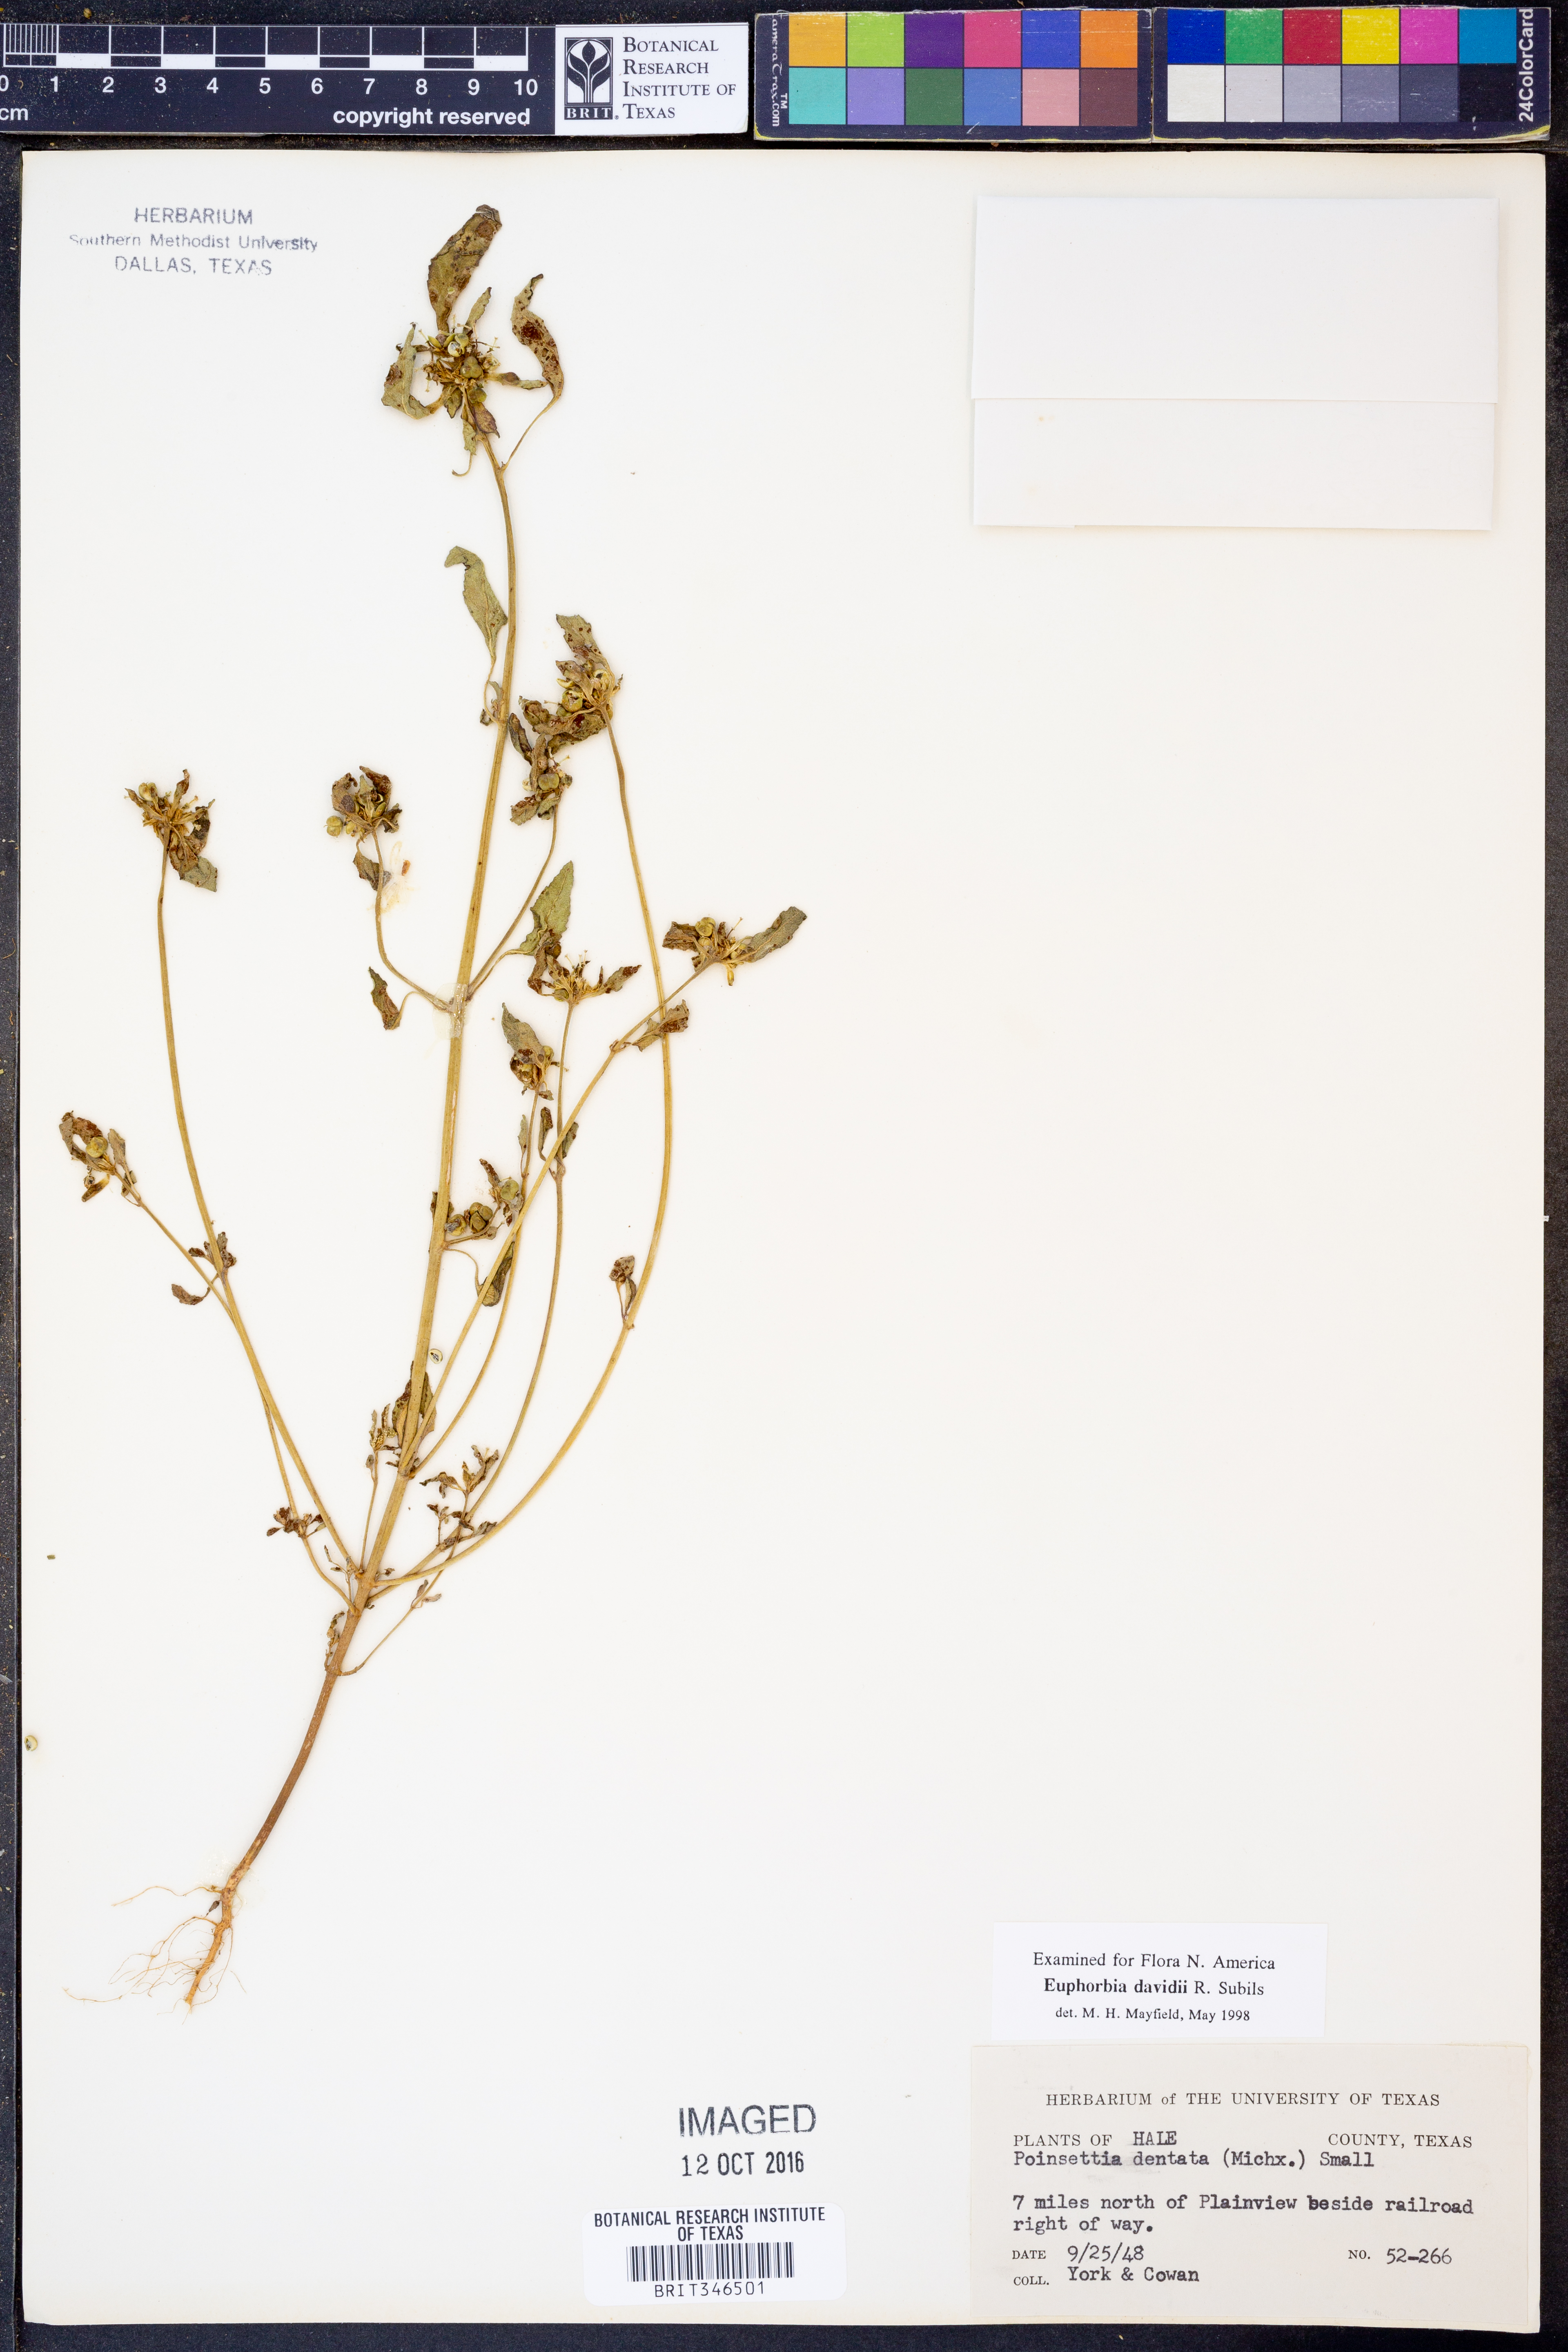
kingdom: Plantae
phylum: Tracheophyta
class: Magnoliopsida
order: Malpighiales
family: Euphorbiaceae
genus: Euphorbia
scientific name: Euphorbia davidii
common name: David's spurge
